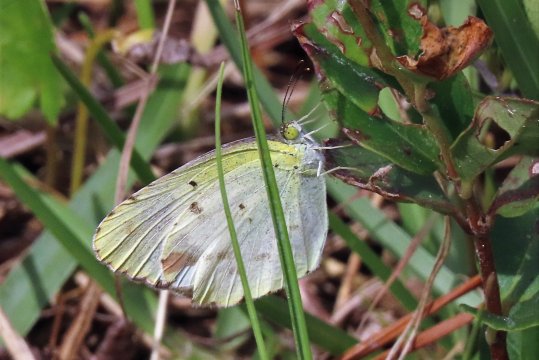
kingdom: Animalia
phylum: Arthropoda
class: Insecta
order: Lepidoptera
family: Pieridae
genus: Pyrisitia
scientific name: Pyrisitia lisa
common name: Little Yellow
